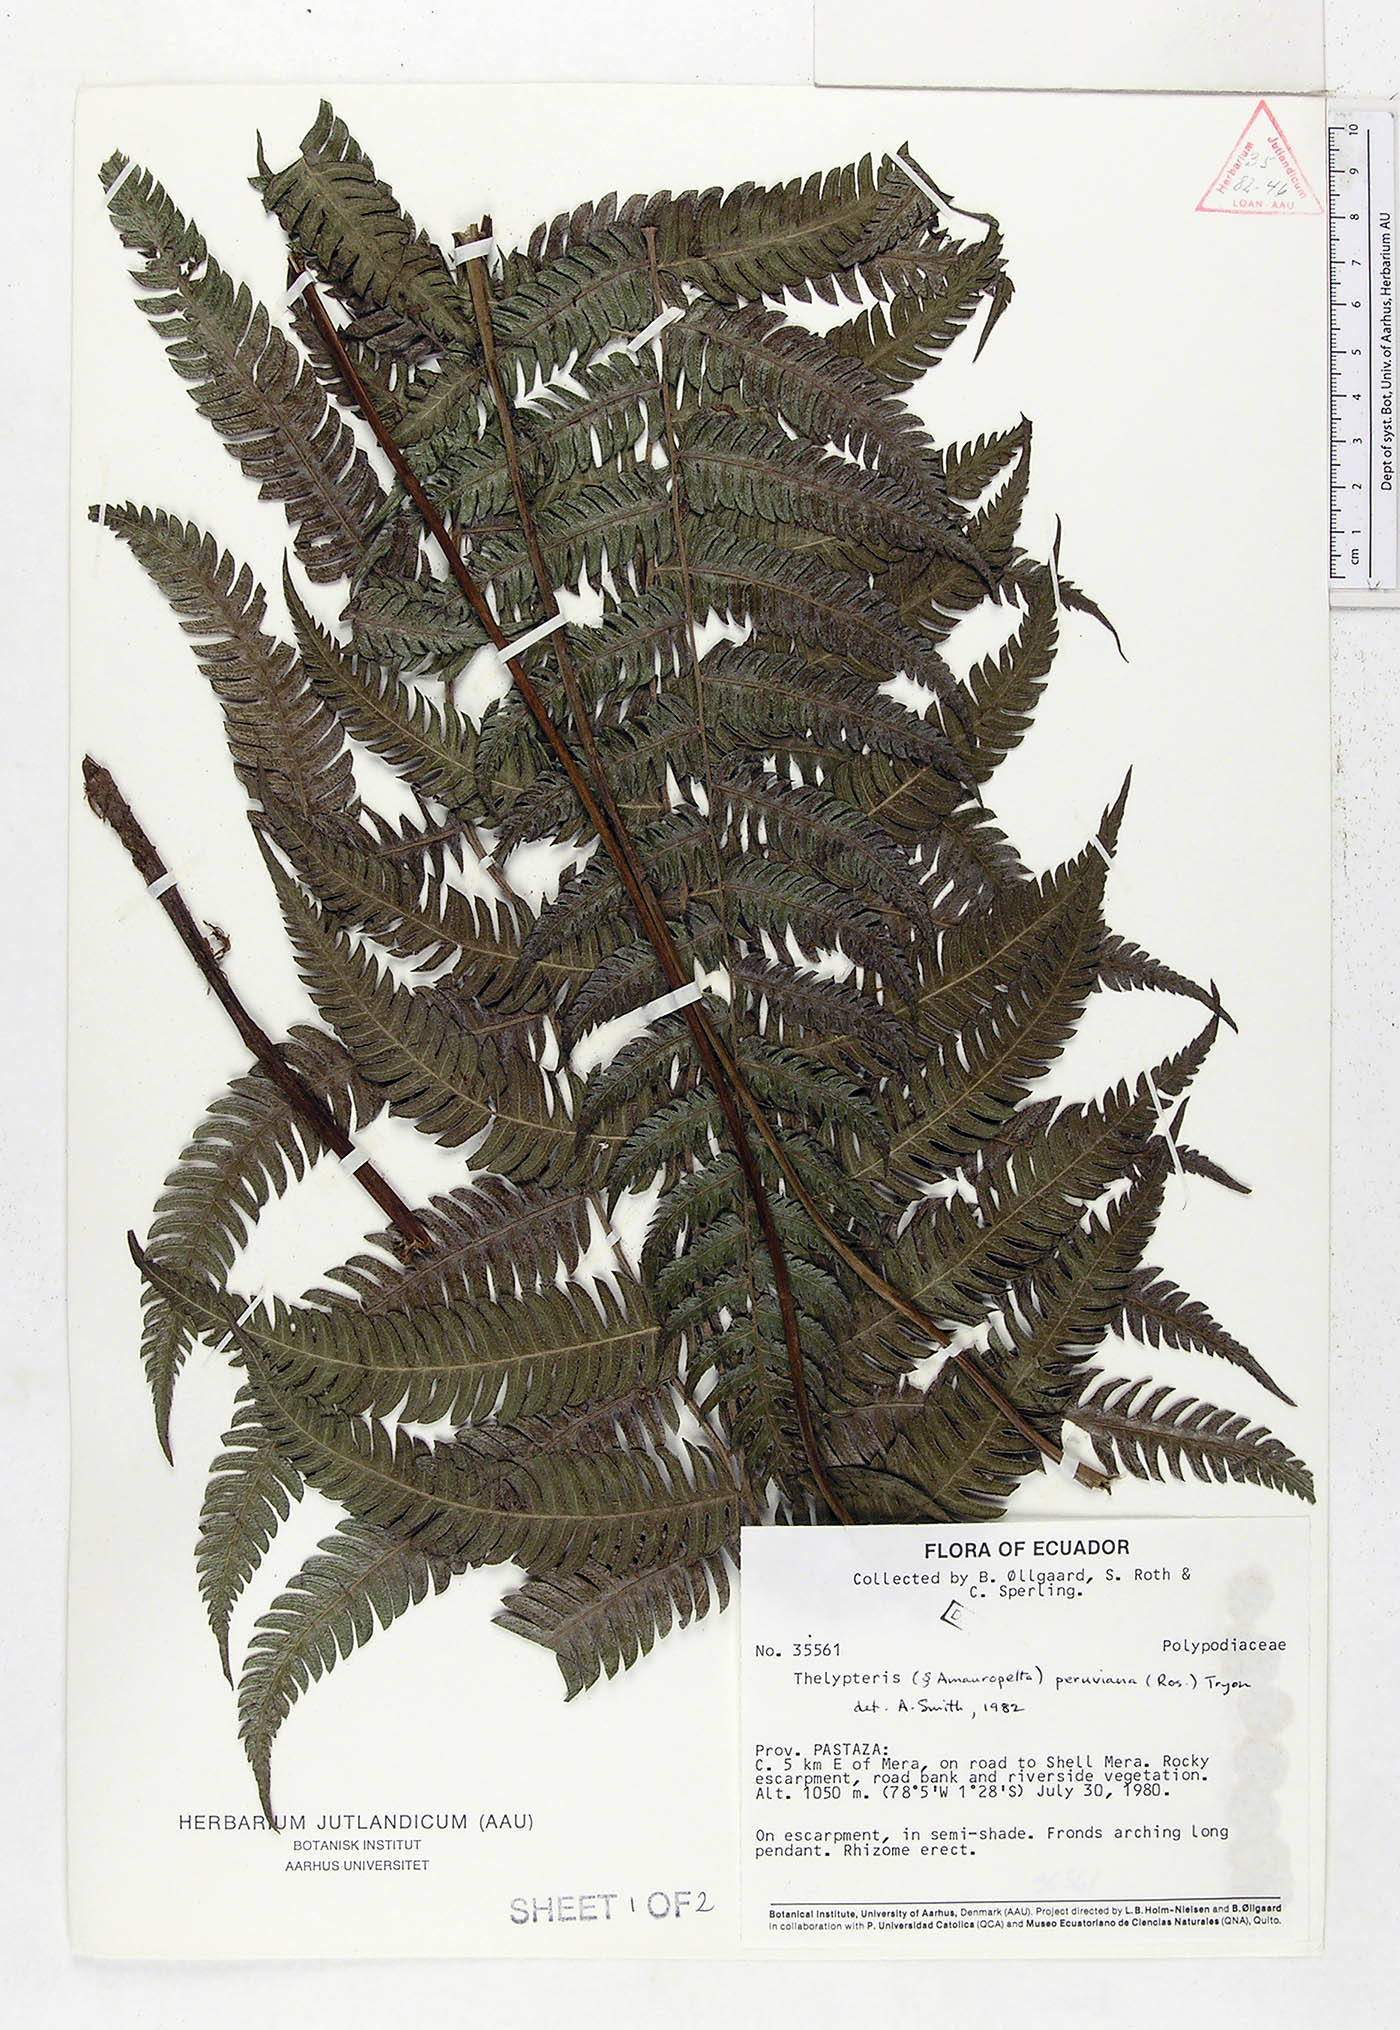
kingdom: Plantae
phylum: Tracheophyta
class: Polypodiopsida
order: Polypodiales
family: Thelypteridaceae
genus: Amauropelta
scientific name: Amauropelta peruviana
